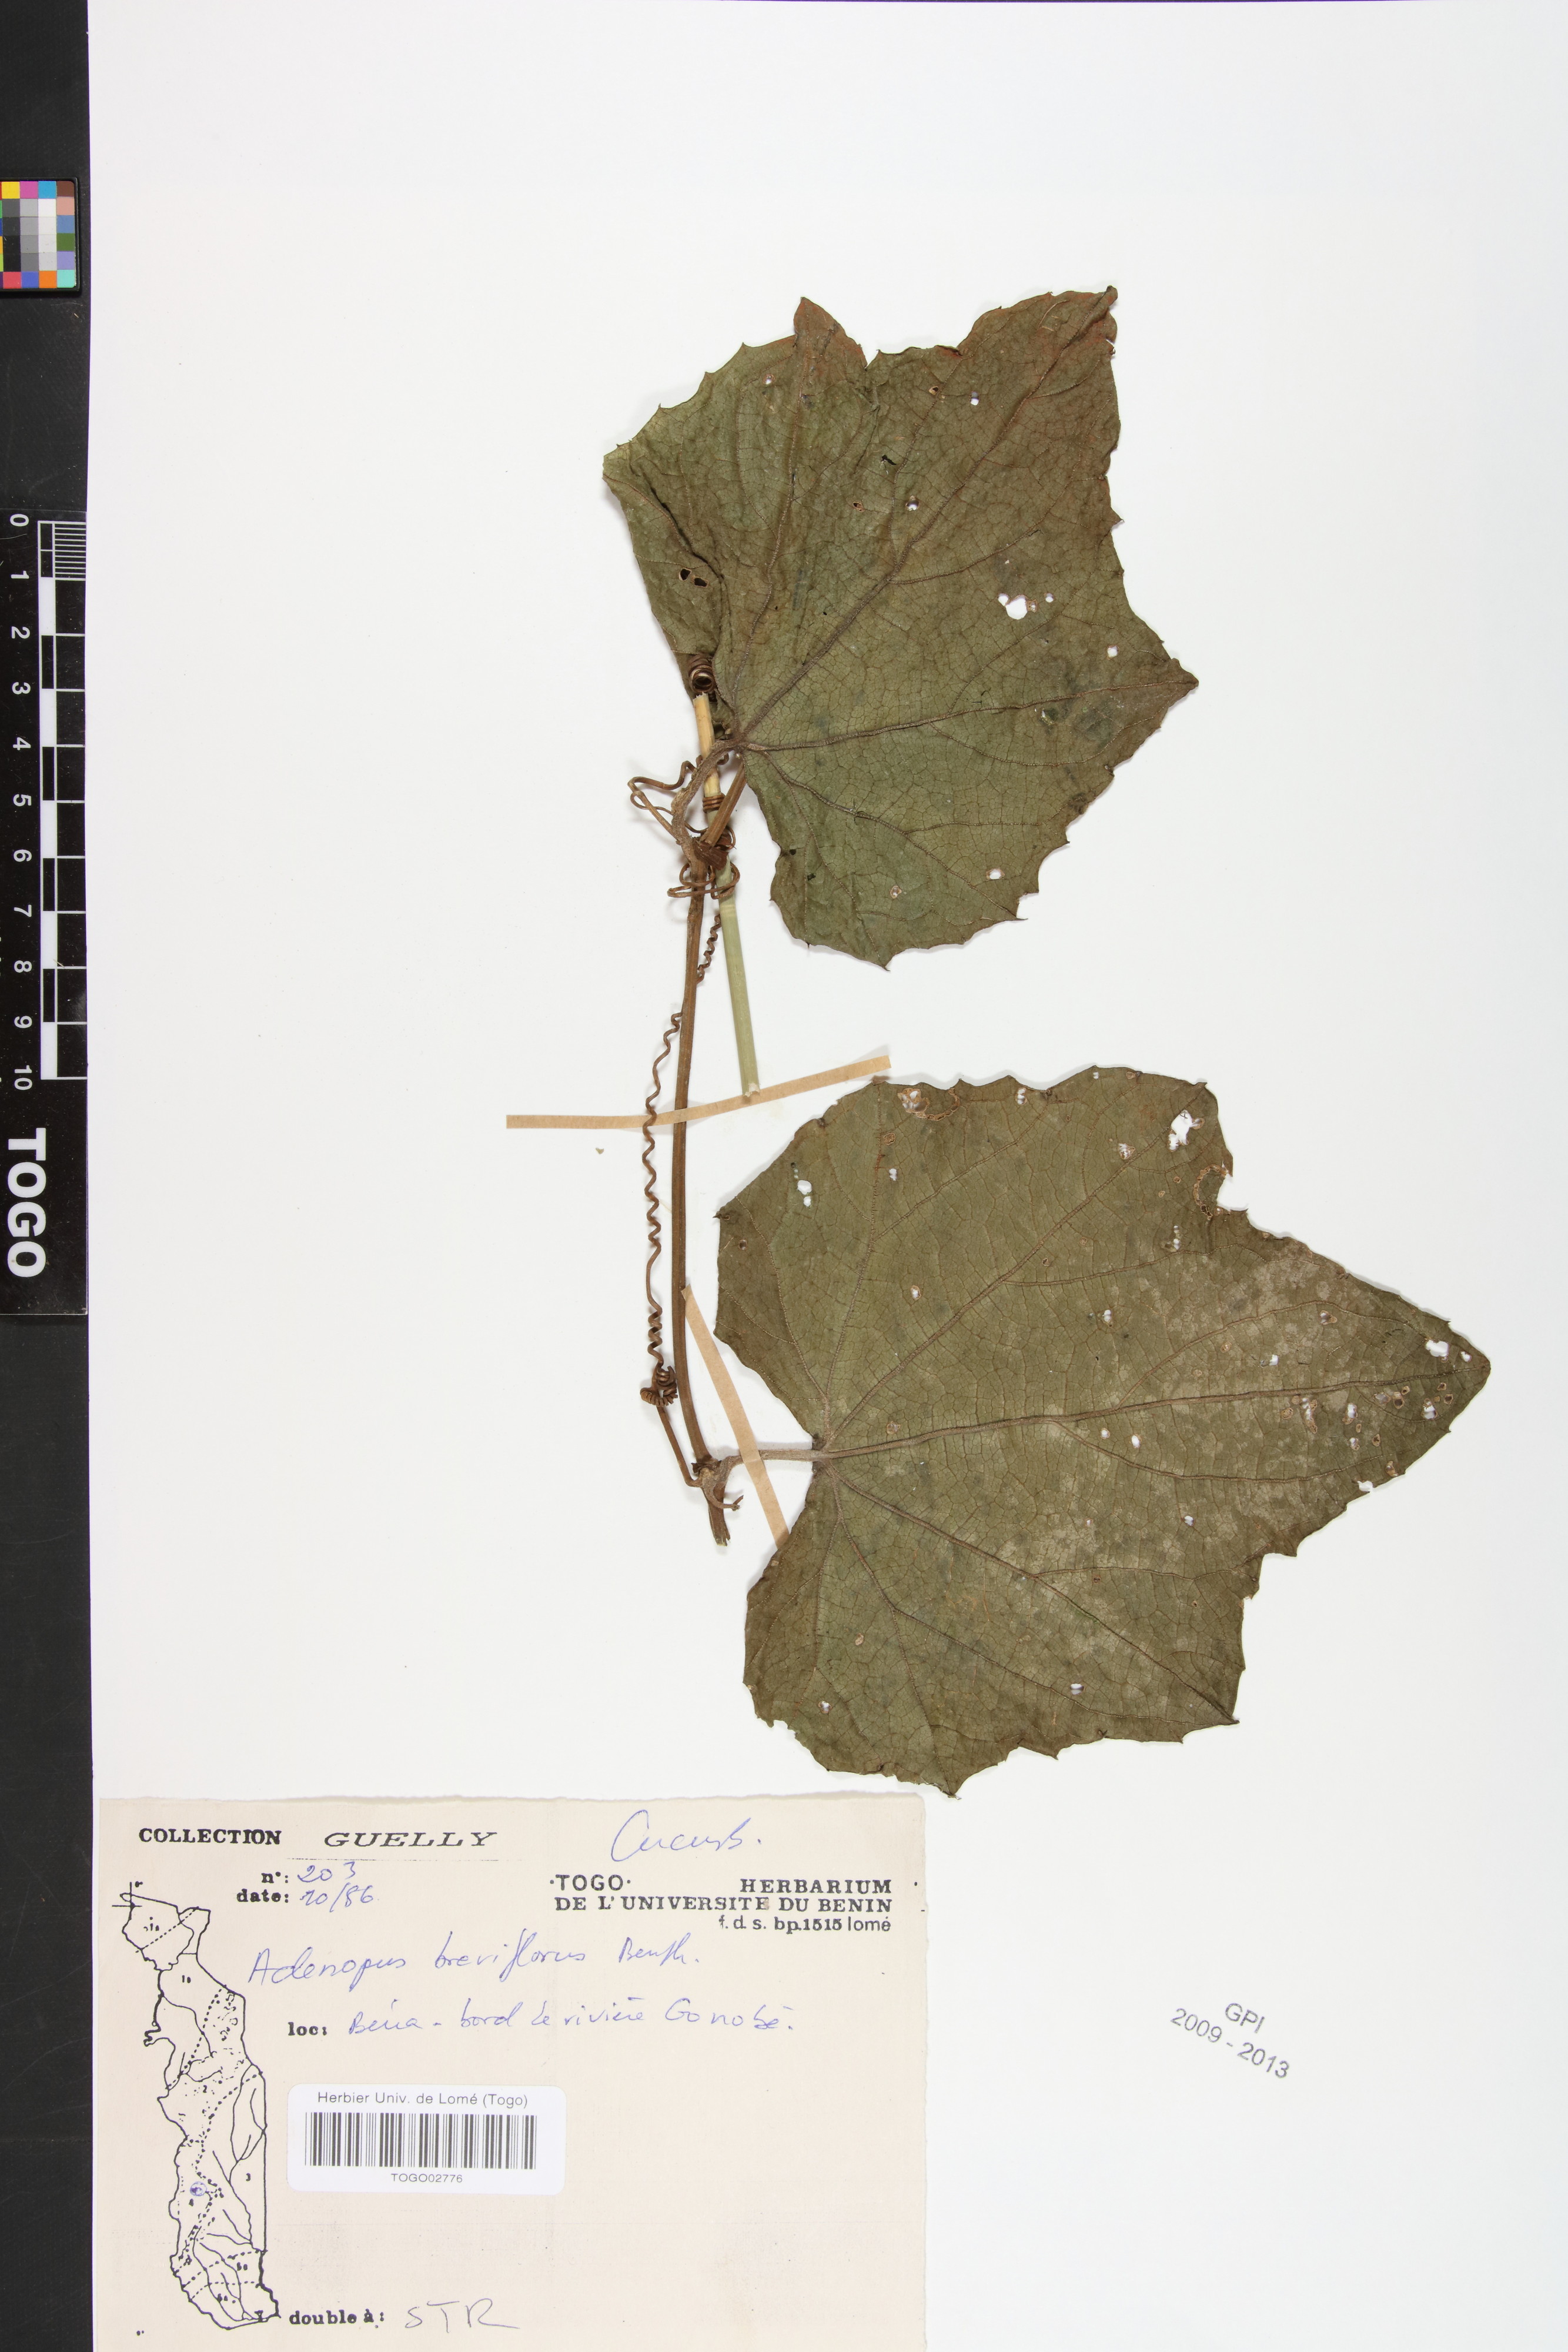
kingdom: Plantae
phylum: Tracheophyta
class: Magnoliopsida
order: Cucurbitales
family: Cucurbitaceae
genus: Lagenaria
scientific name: Lagenaria breviflora
